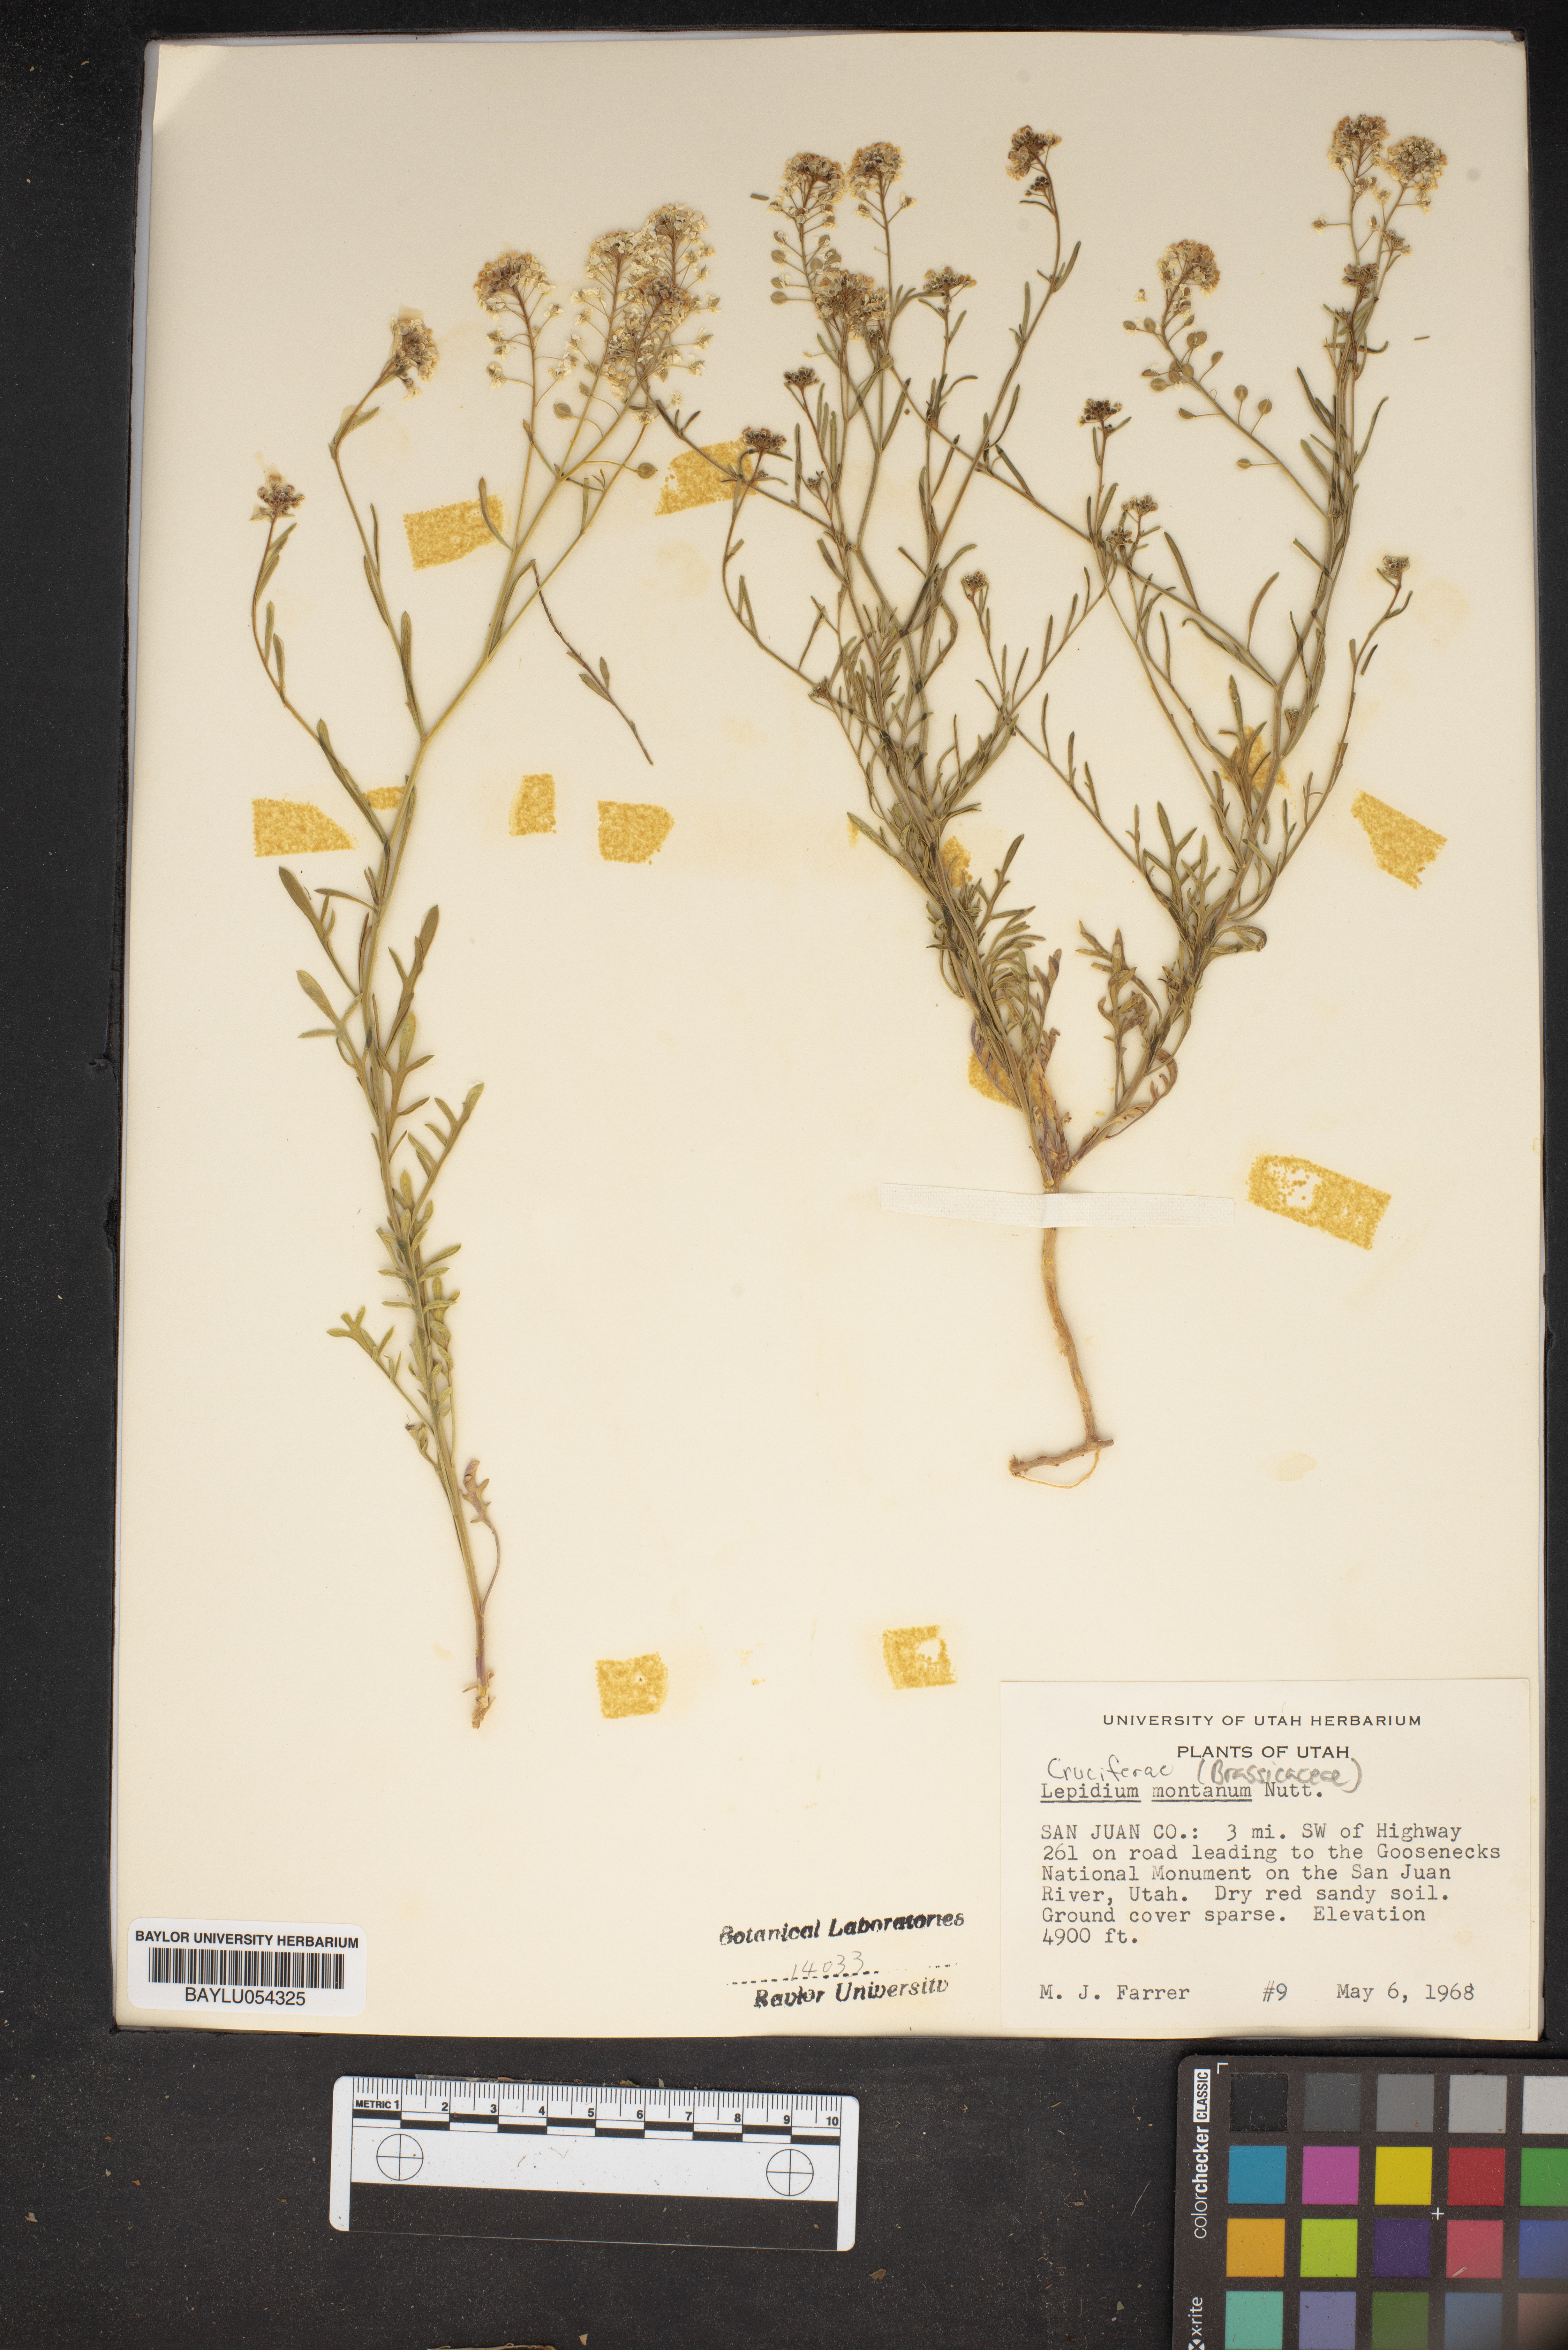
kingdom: Plantae
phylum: Tracheophyta
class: Magnoliopsida
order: Brassicales
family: Brassicaceae
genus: Lepidium
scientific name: Lepidium montanum
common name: Mountain pepperplant
